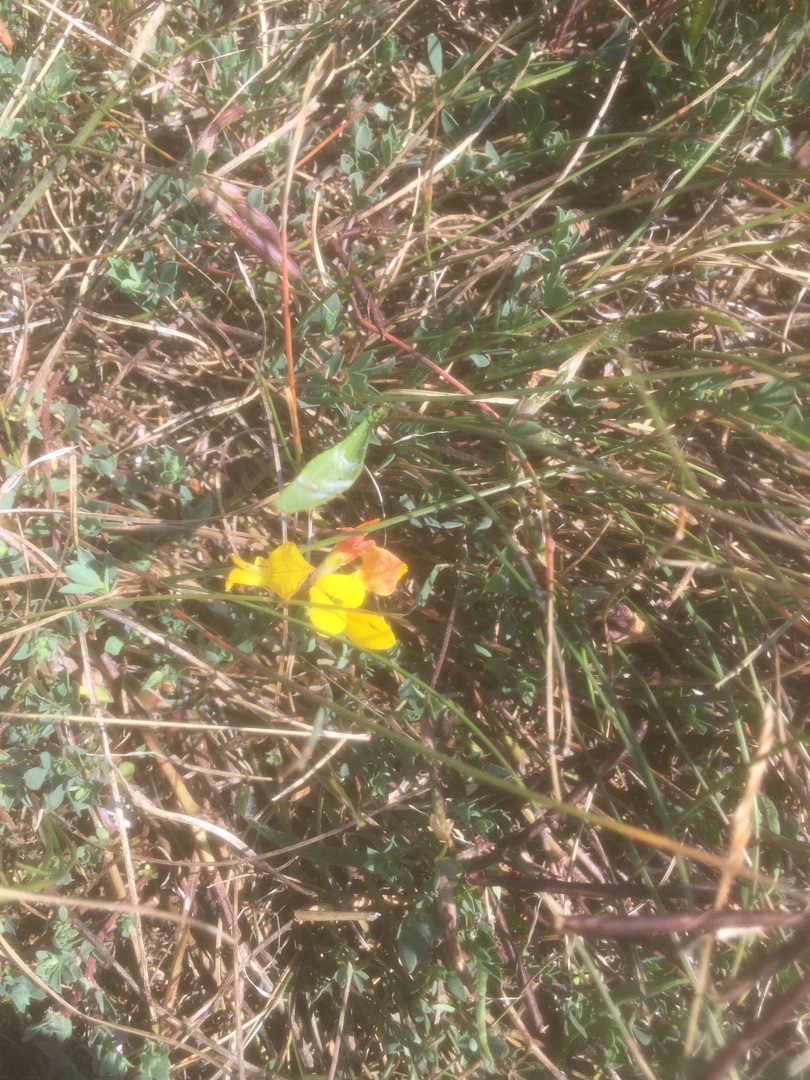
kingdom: Plantae
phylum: Tracheophyta
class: Magnoliopsida
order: Fabales
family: Fabaceae
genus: Lotus
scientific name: Lotus corniculatus
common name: Almindelig kællingetand
